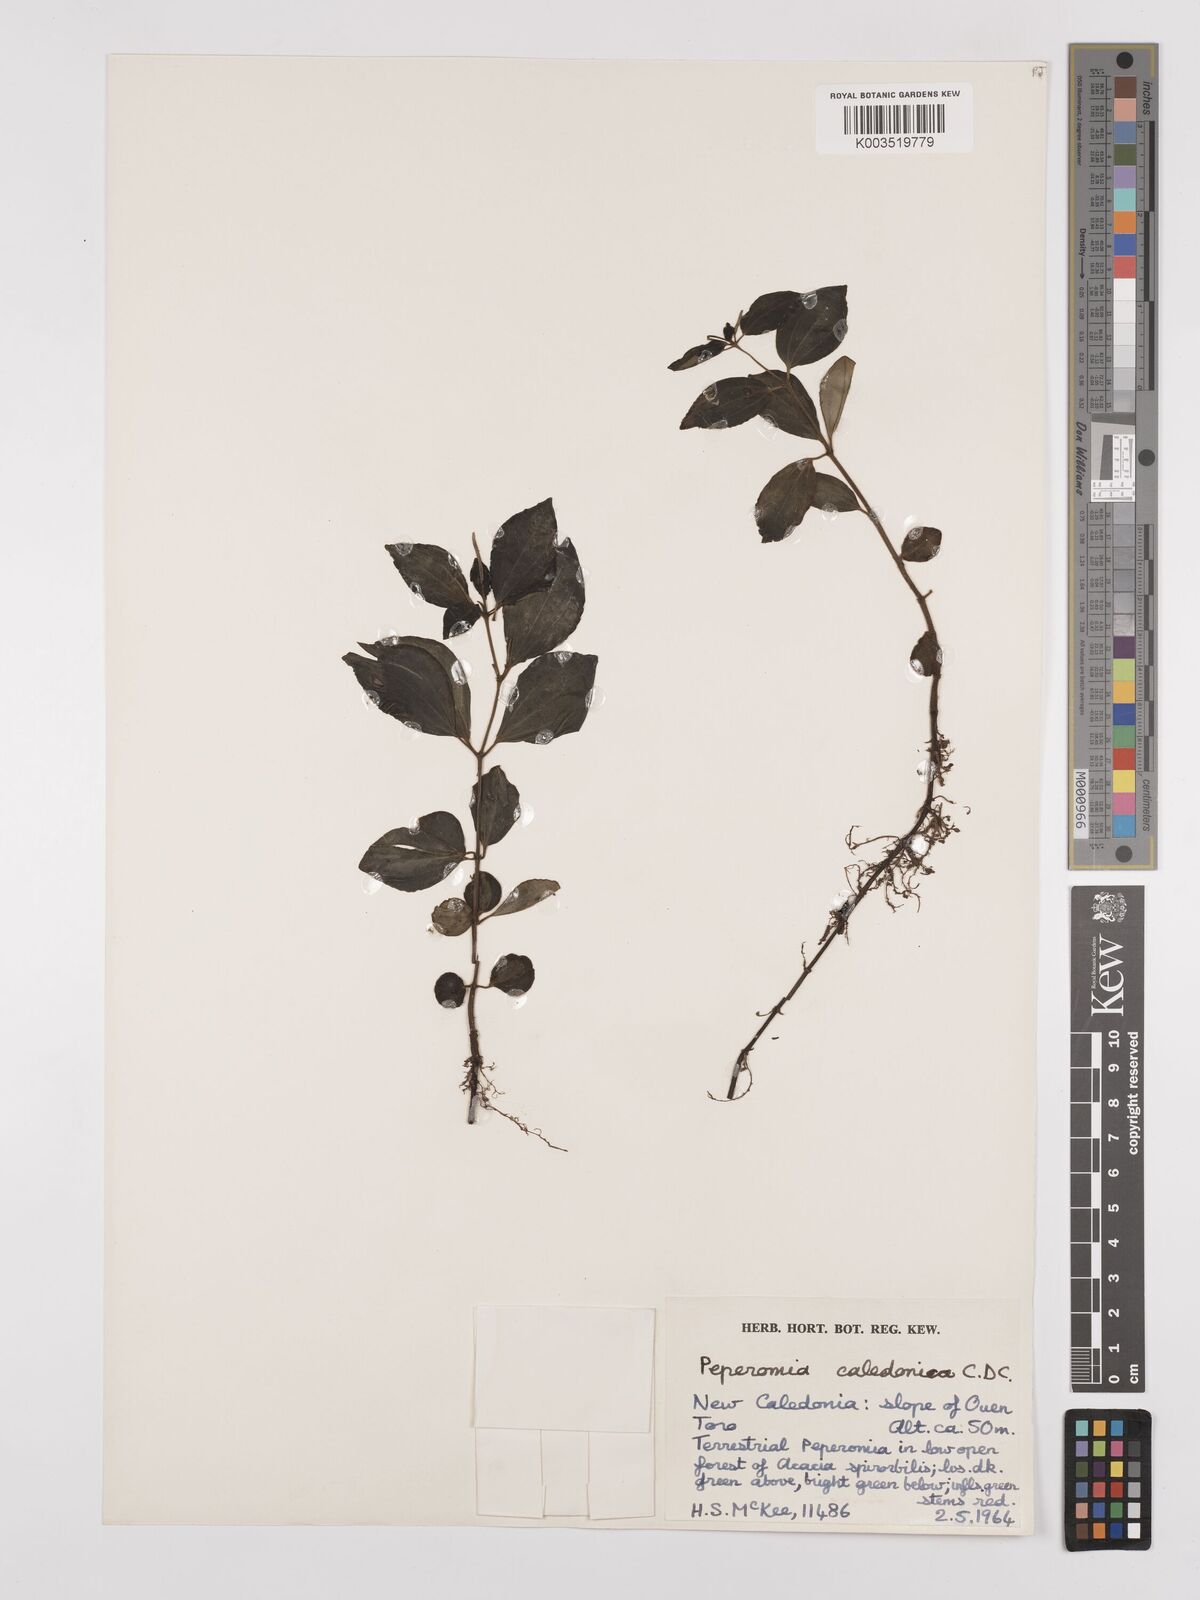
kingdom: Plantae
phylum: Tracheophyta
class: Magnoliopsida
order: Piperales
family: Piperaceae
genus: Peperomia
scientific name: Peperomia caledonica
